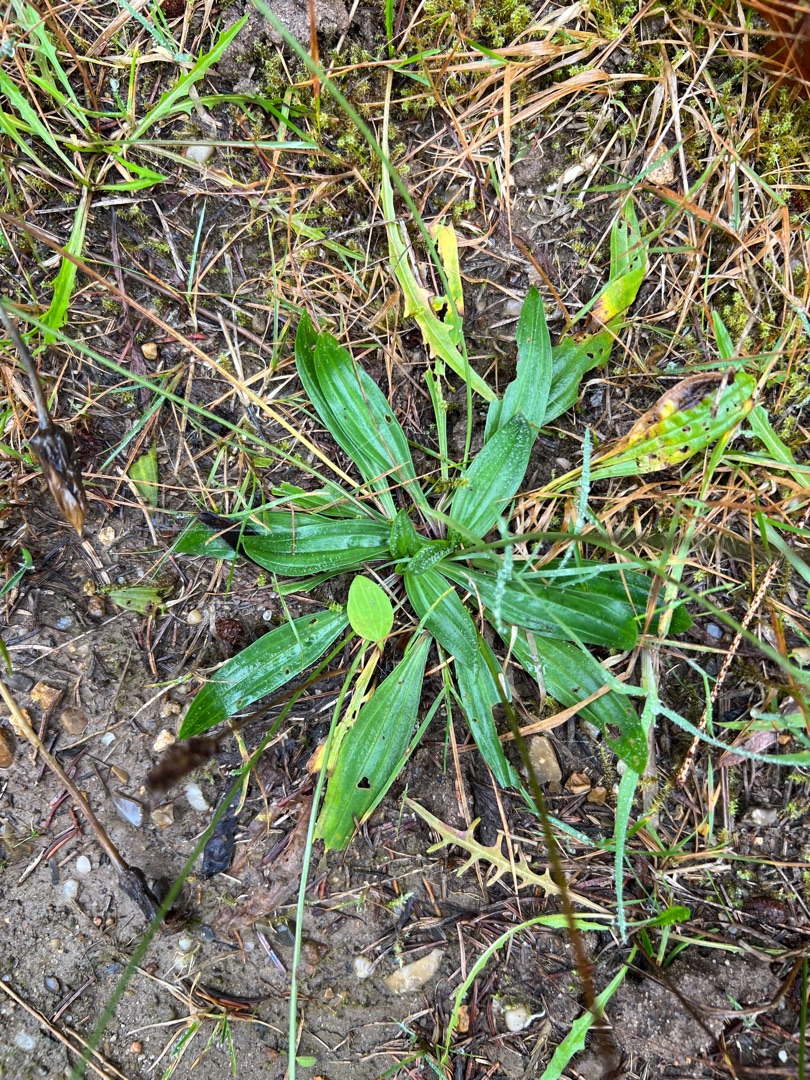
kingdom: Plantae
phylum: Tracheophyta
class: Magnoliopsida
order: Lamiales
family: Plantaginaceae
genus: Plantago
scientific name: Plantago lanceolata
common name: Lancet-vejbred
